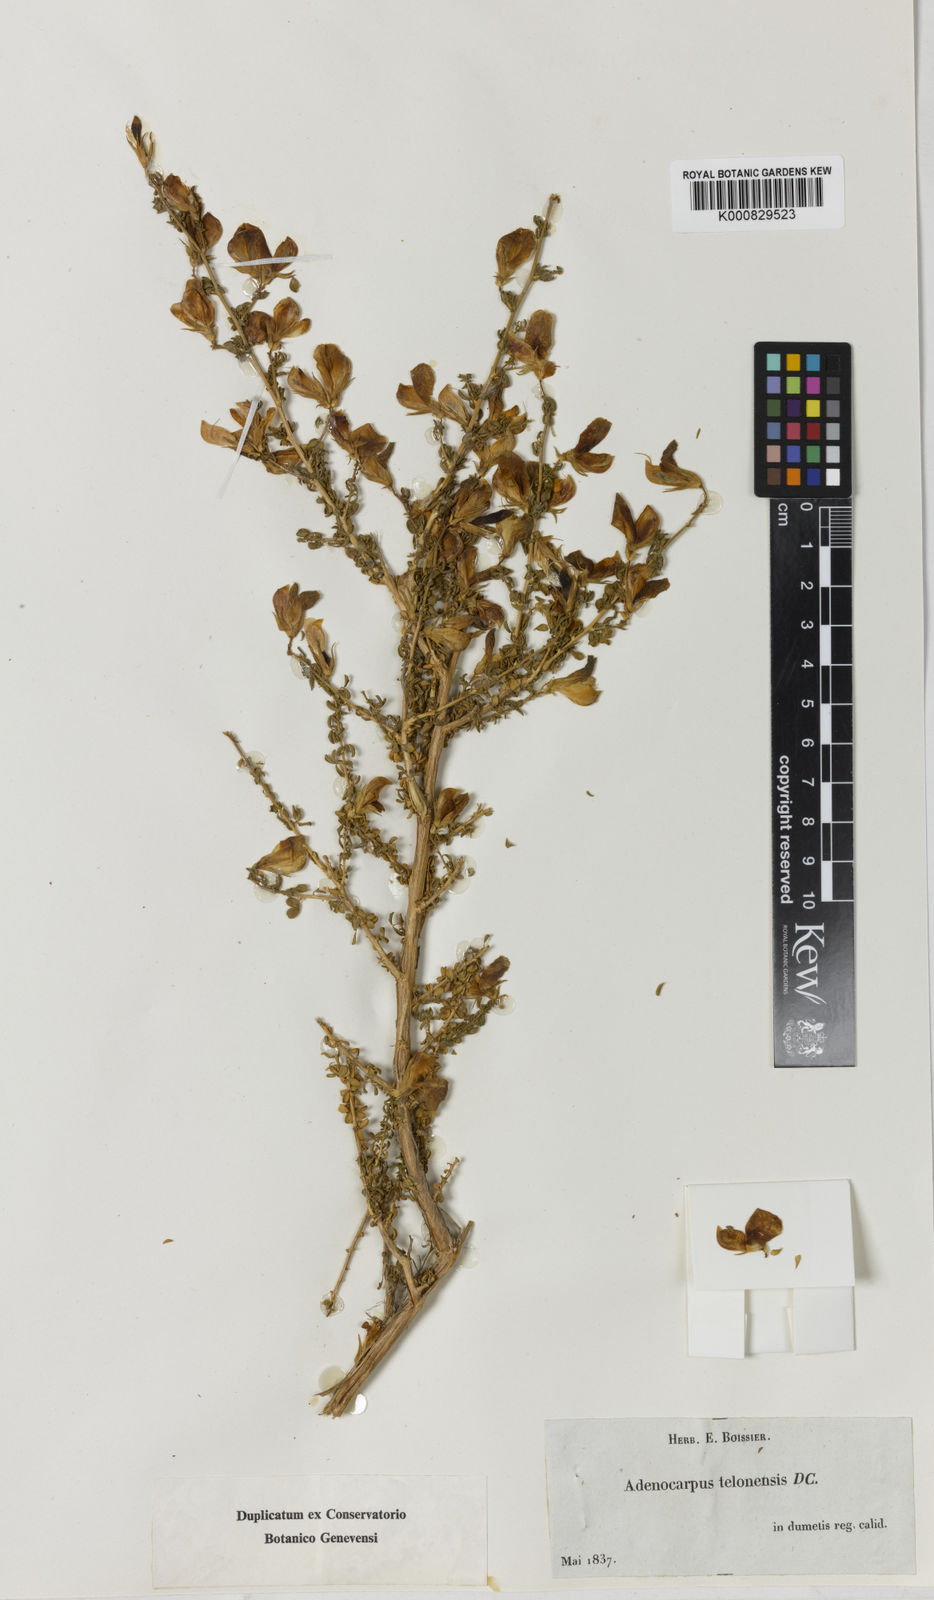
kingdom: Plantae
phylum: Tracheophyta
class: Magnoliopsida
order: Fabales
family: Fabaceae
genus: Adenocarpus
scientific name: Adenocarpus telonensis
